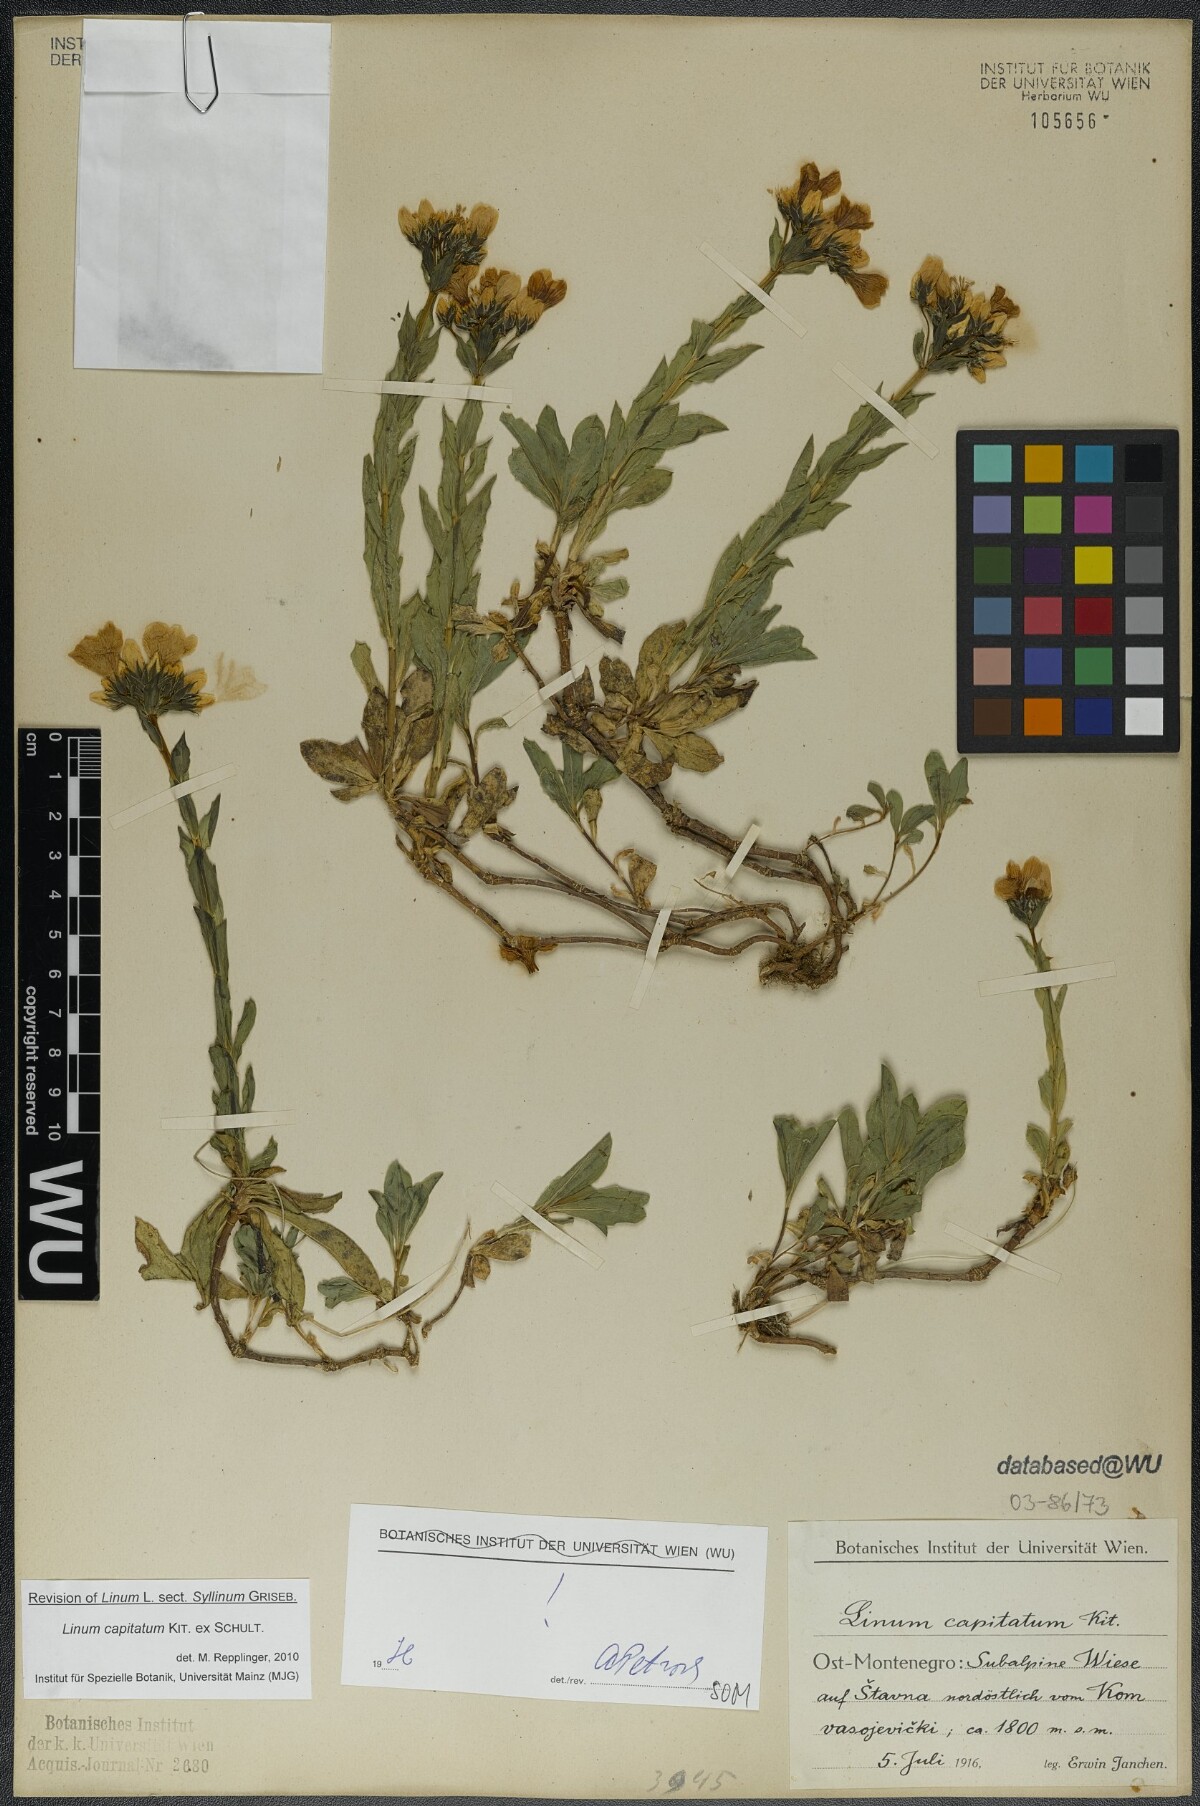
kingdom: Plantae
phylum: Tracheophyta
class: Magnoliopsida
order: Malpighiales
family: Linaceae
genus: Linum
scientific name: Linum capitatum
